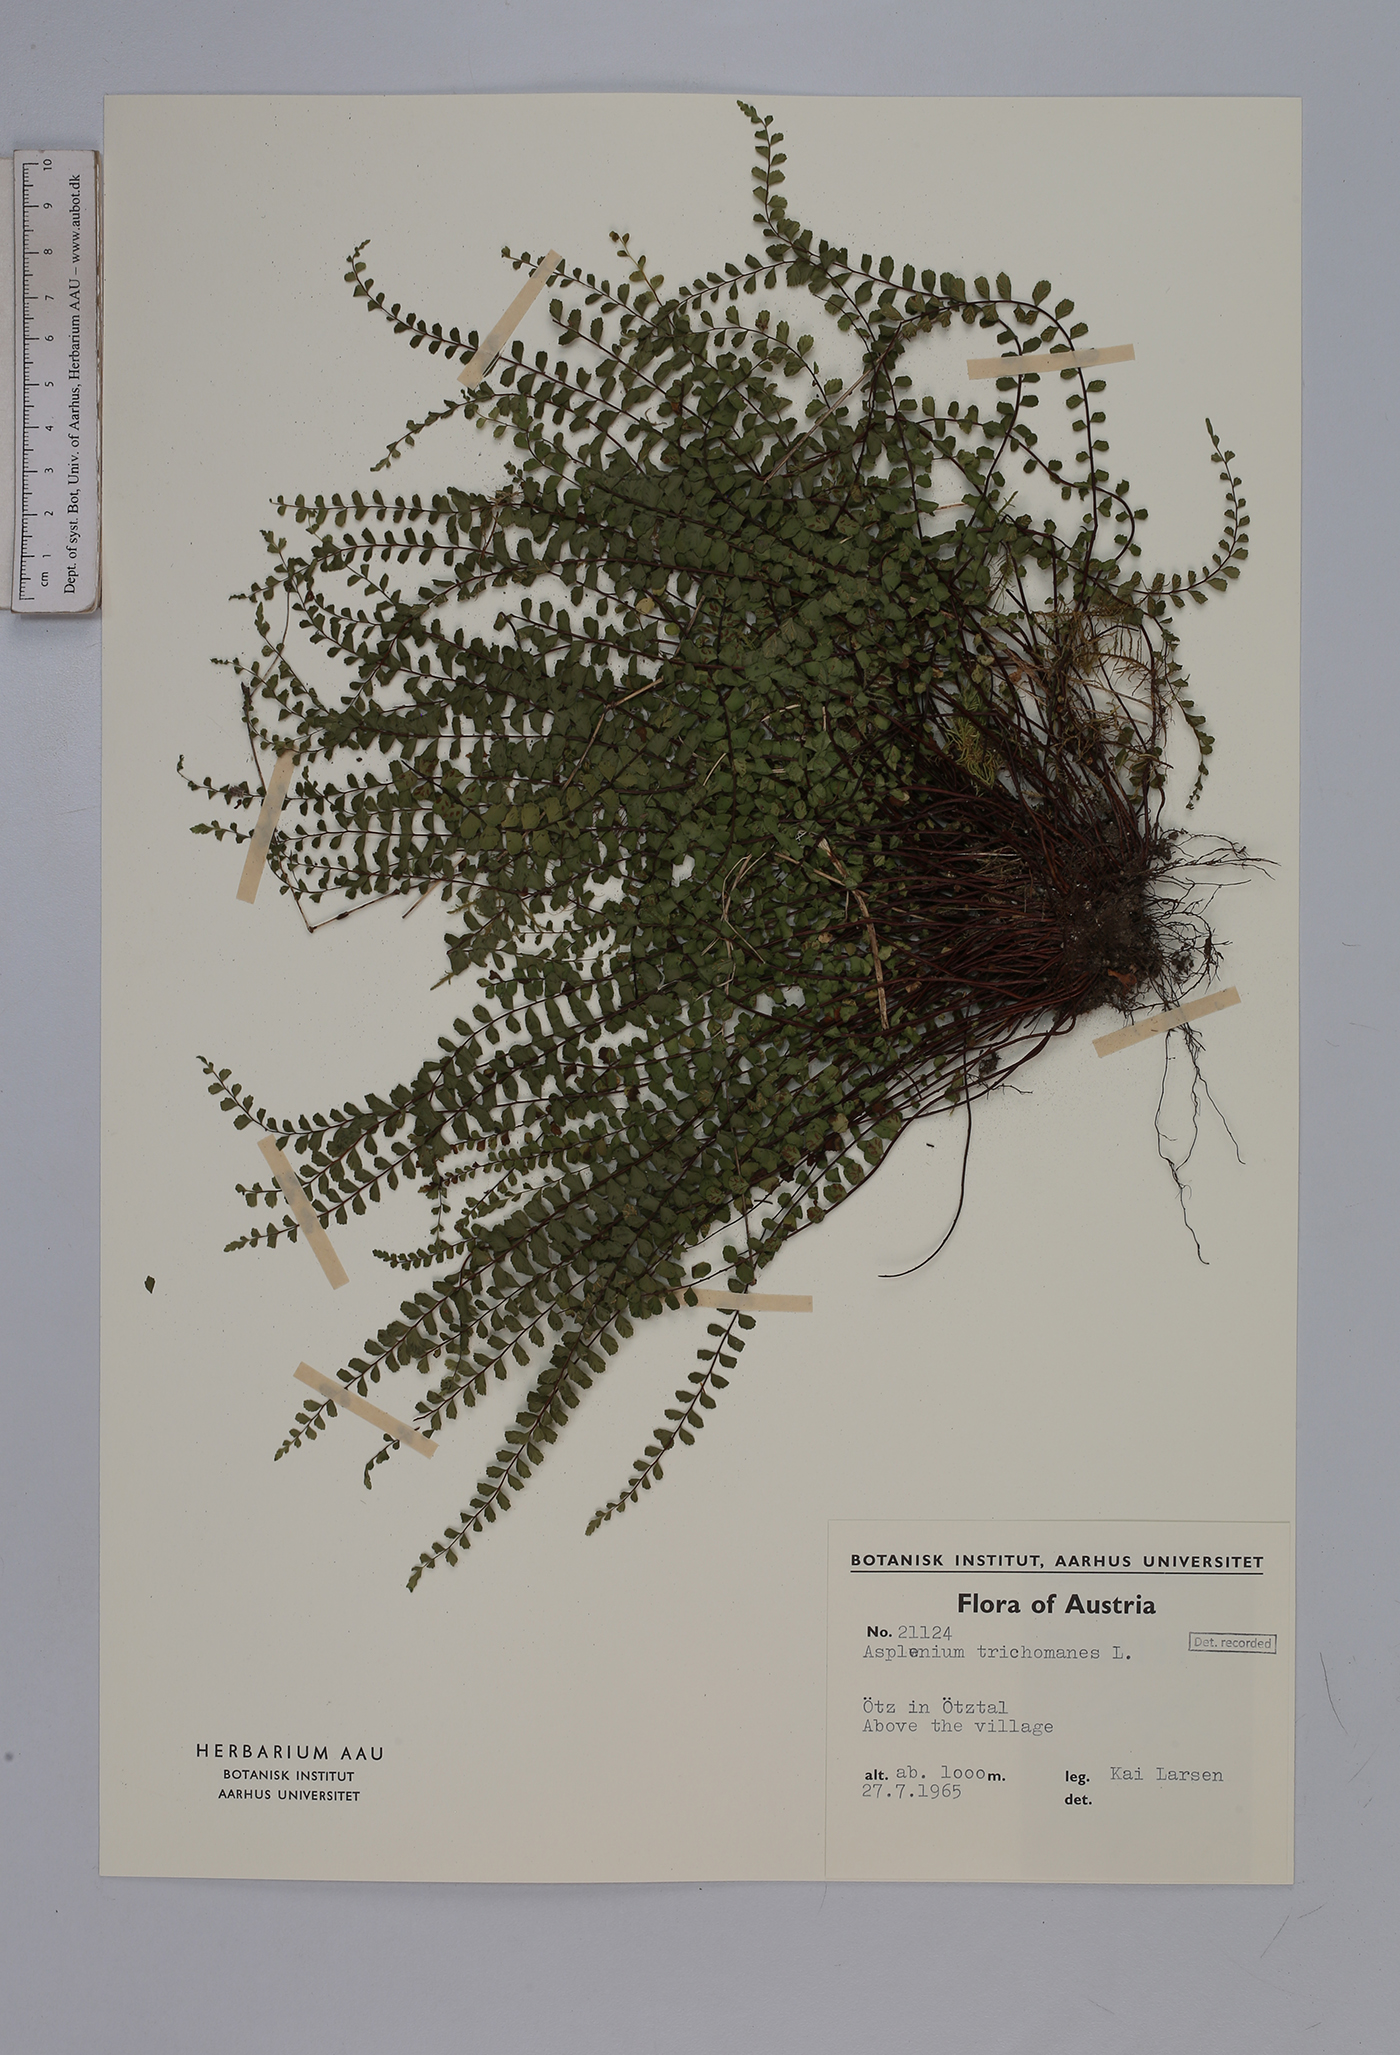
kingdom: Plantae
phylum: Tracheophyta
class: Polypodiopsida
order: Polypodiales
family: Aspleniaceae
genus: Asplenium
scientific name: Asplenium trichomanes
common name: Maidenhair spleenwort
